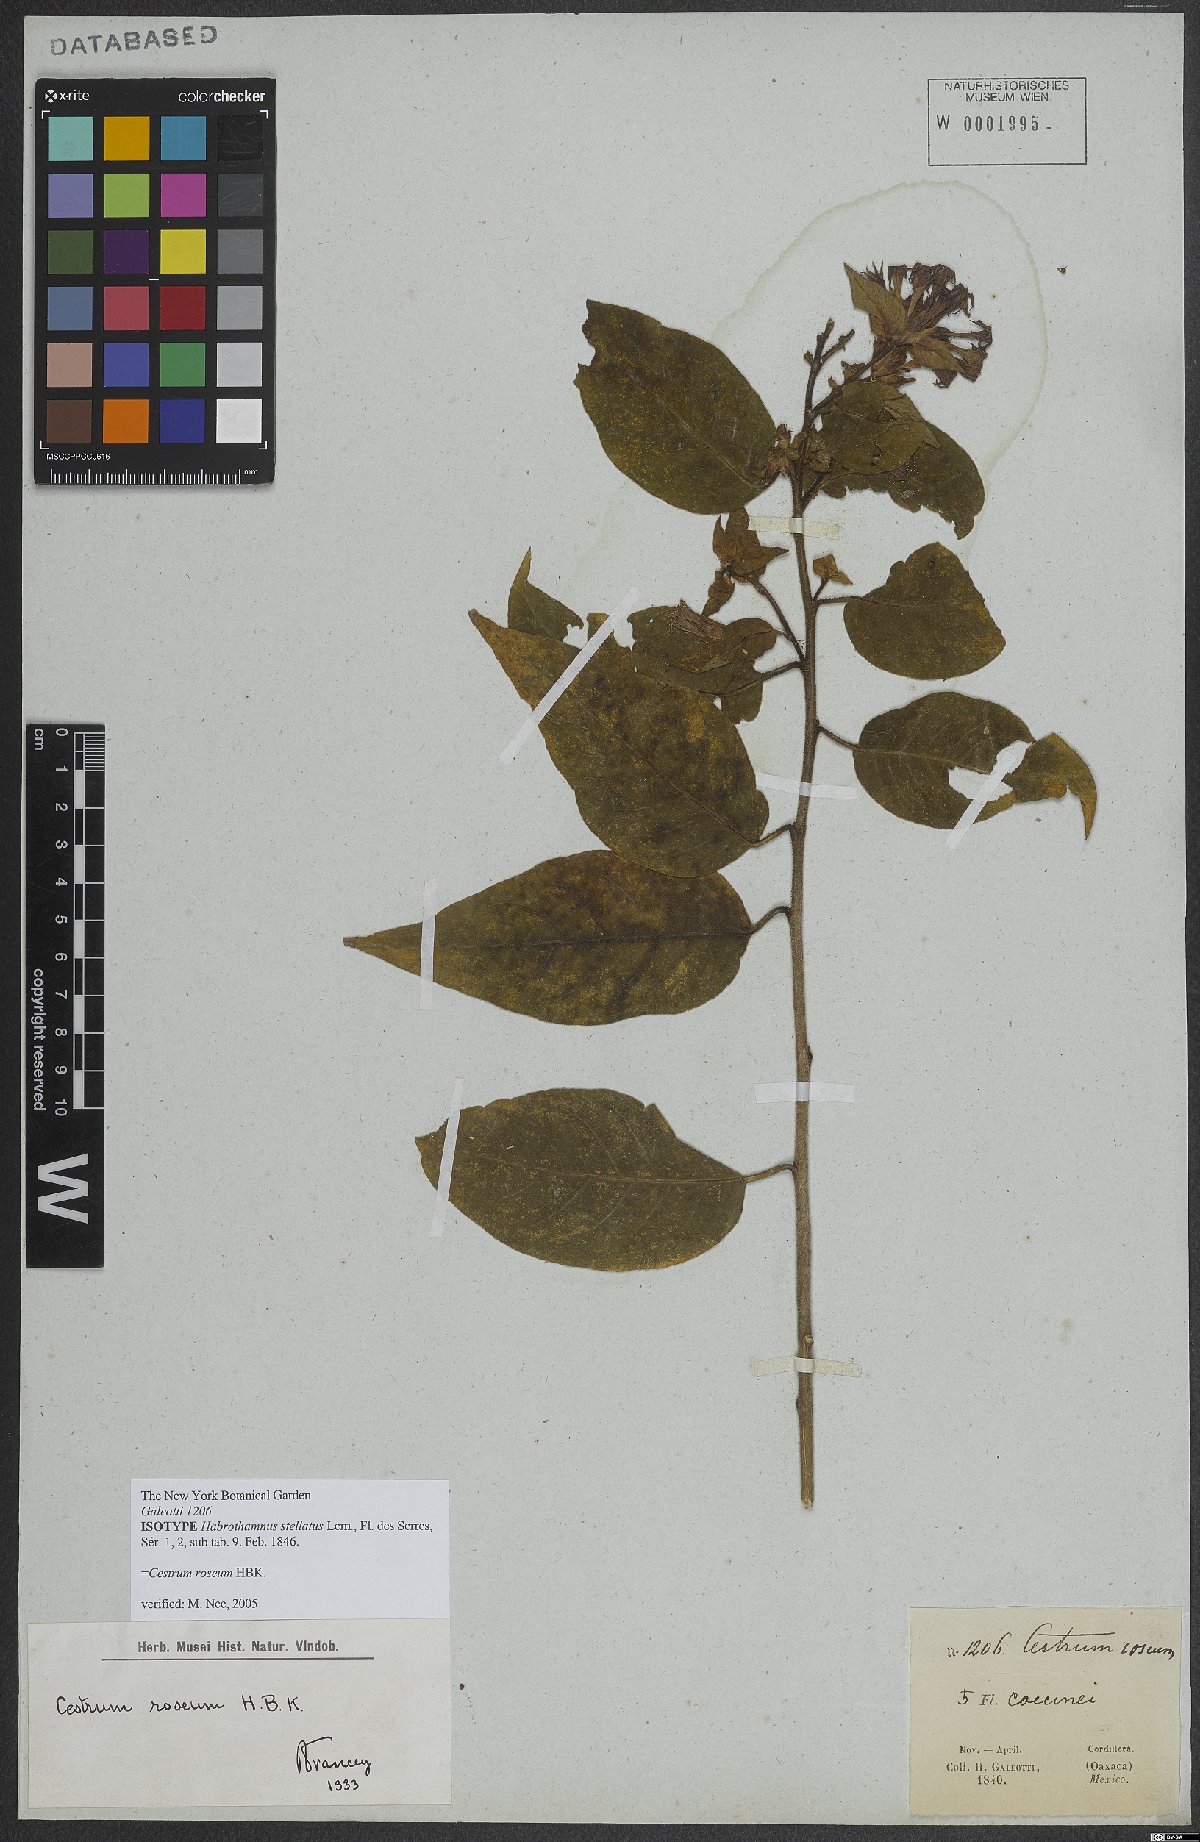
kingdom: Plantae
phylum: Tracheophyta
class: Magnoliopsida
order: Solanales
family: Solanaceae
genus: Cestrum
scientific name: Cestrum roseum
